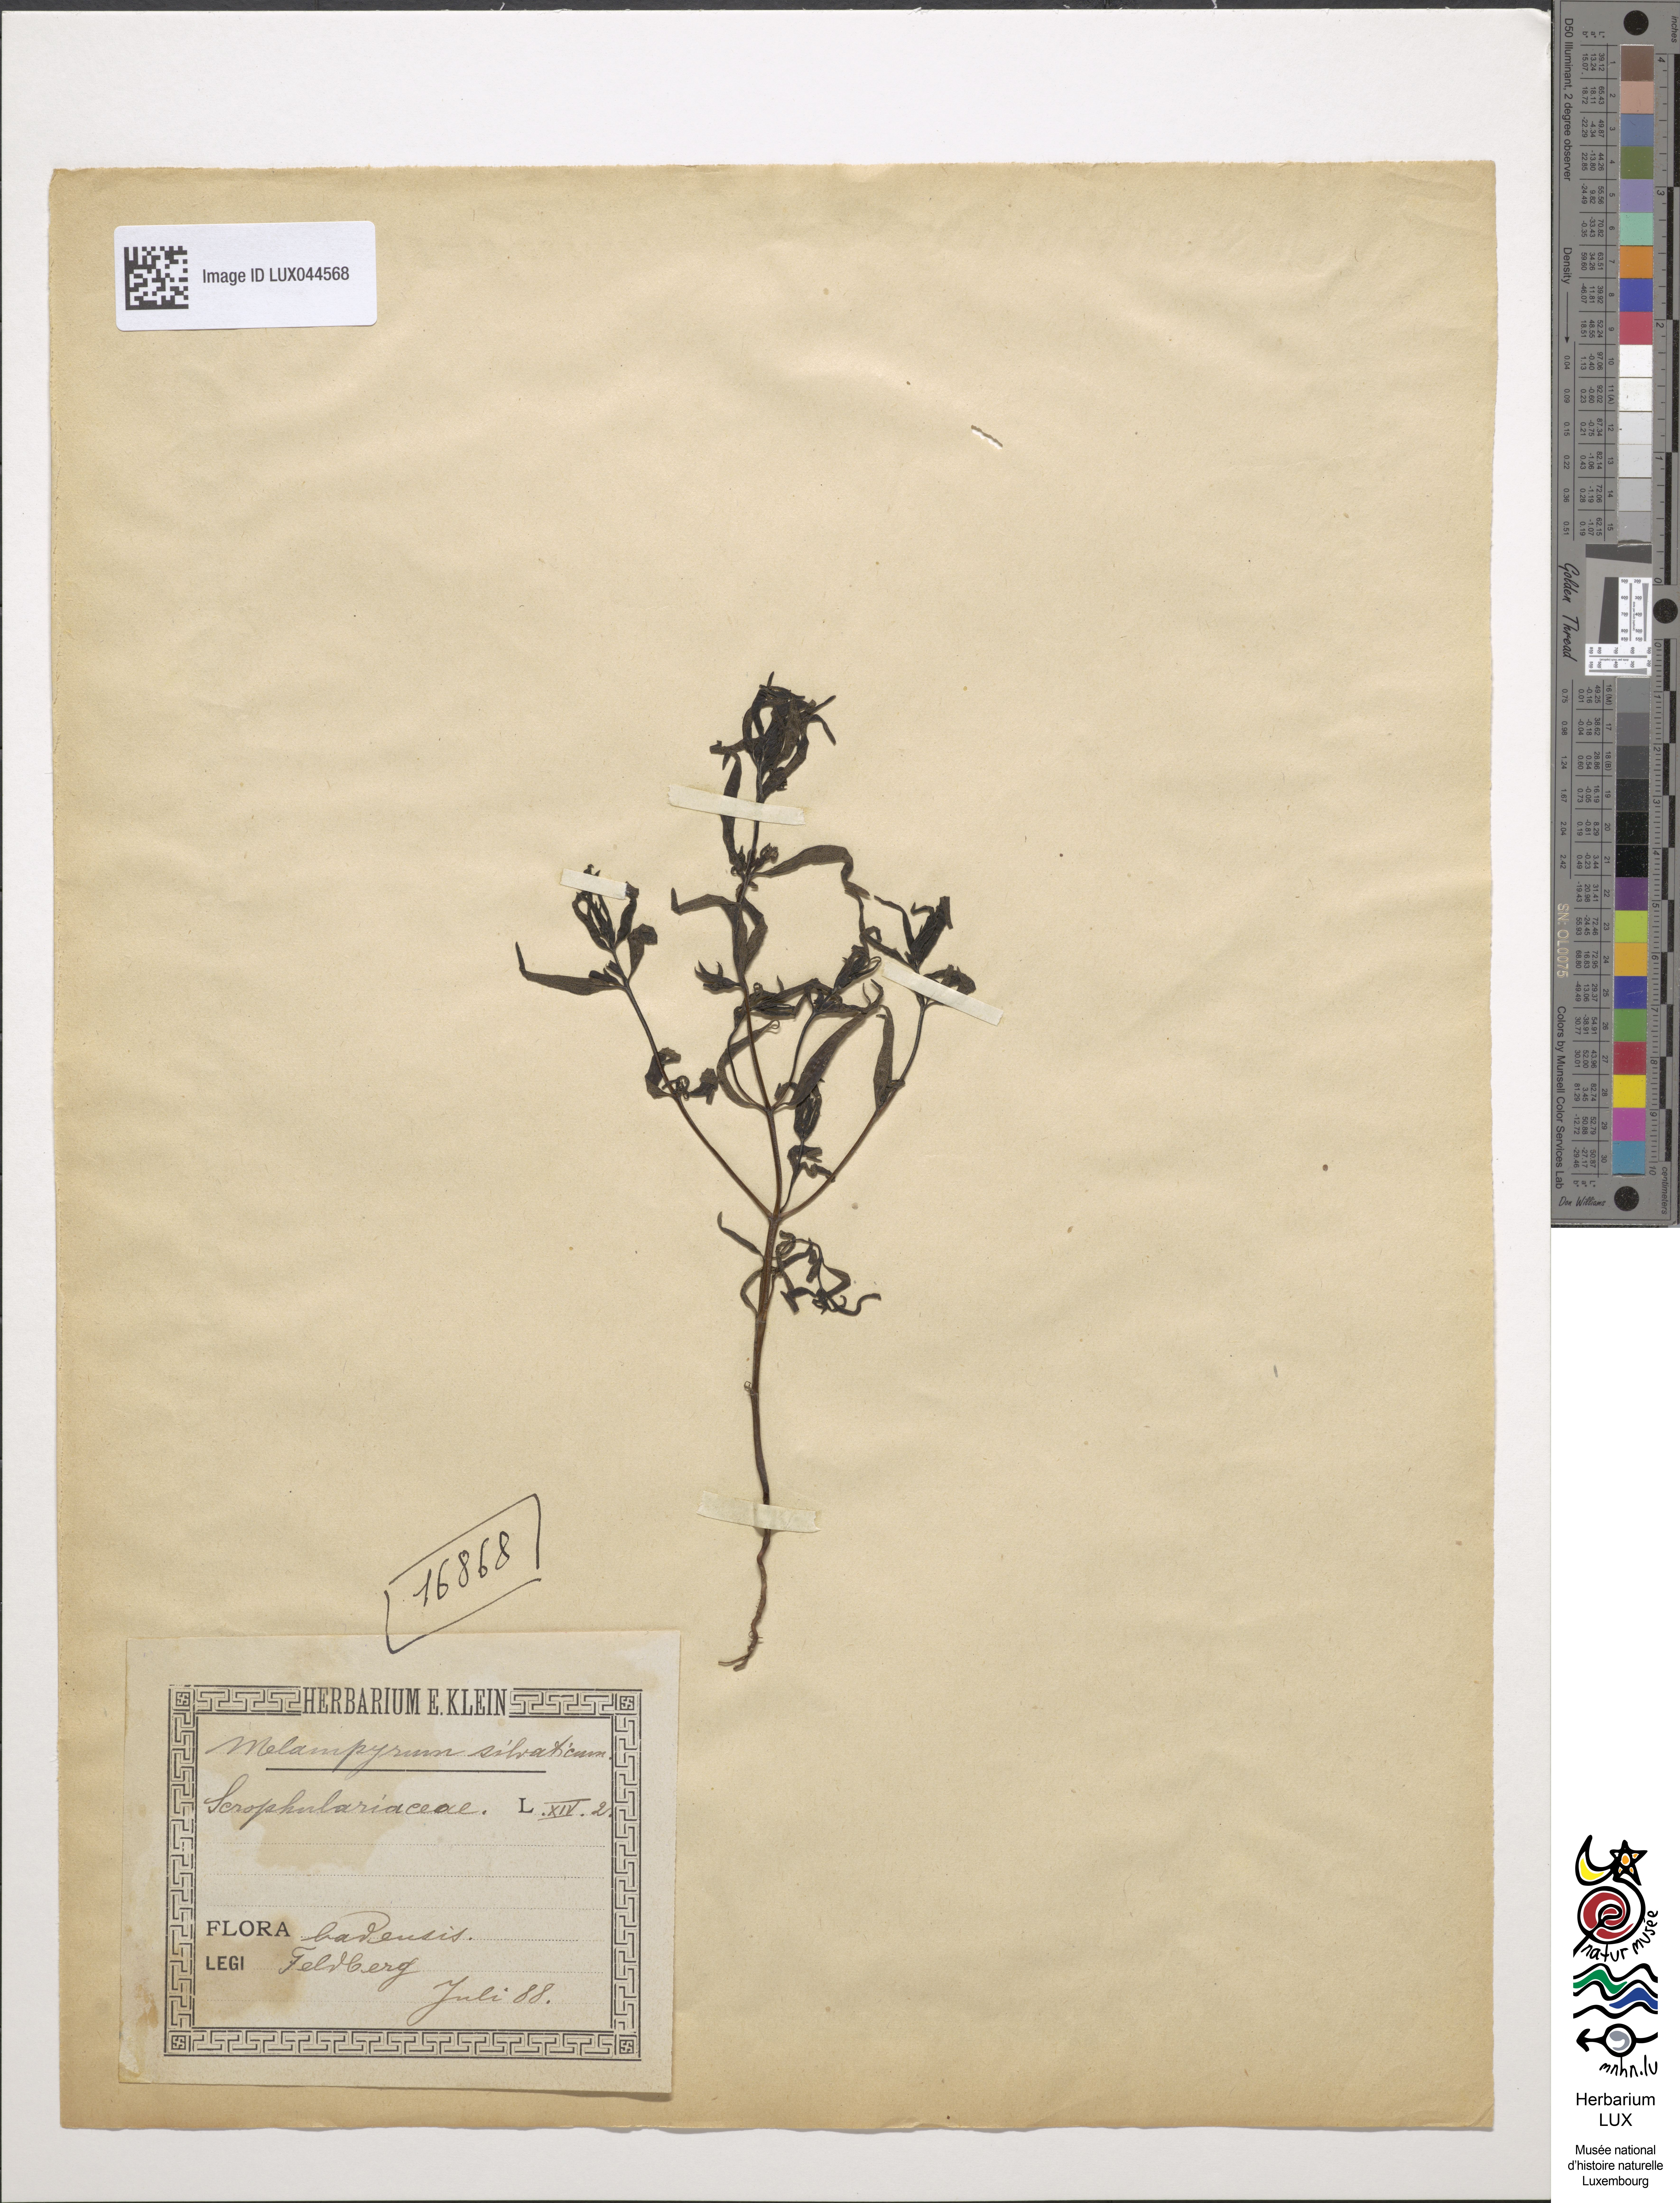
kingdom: Plantae
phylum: Tracheophyta
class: Magnoliopsida
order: Lamiales
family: Orobanchaceae
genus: Melampyrum
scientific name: Melampyrum sylvaticum
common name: Small cow-wheat
